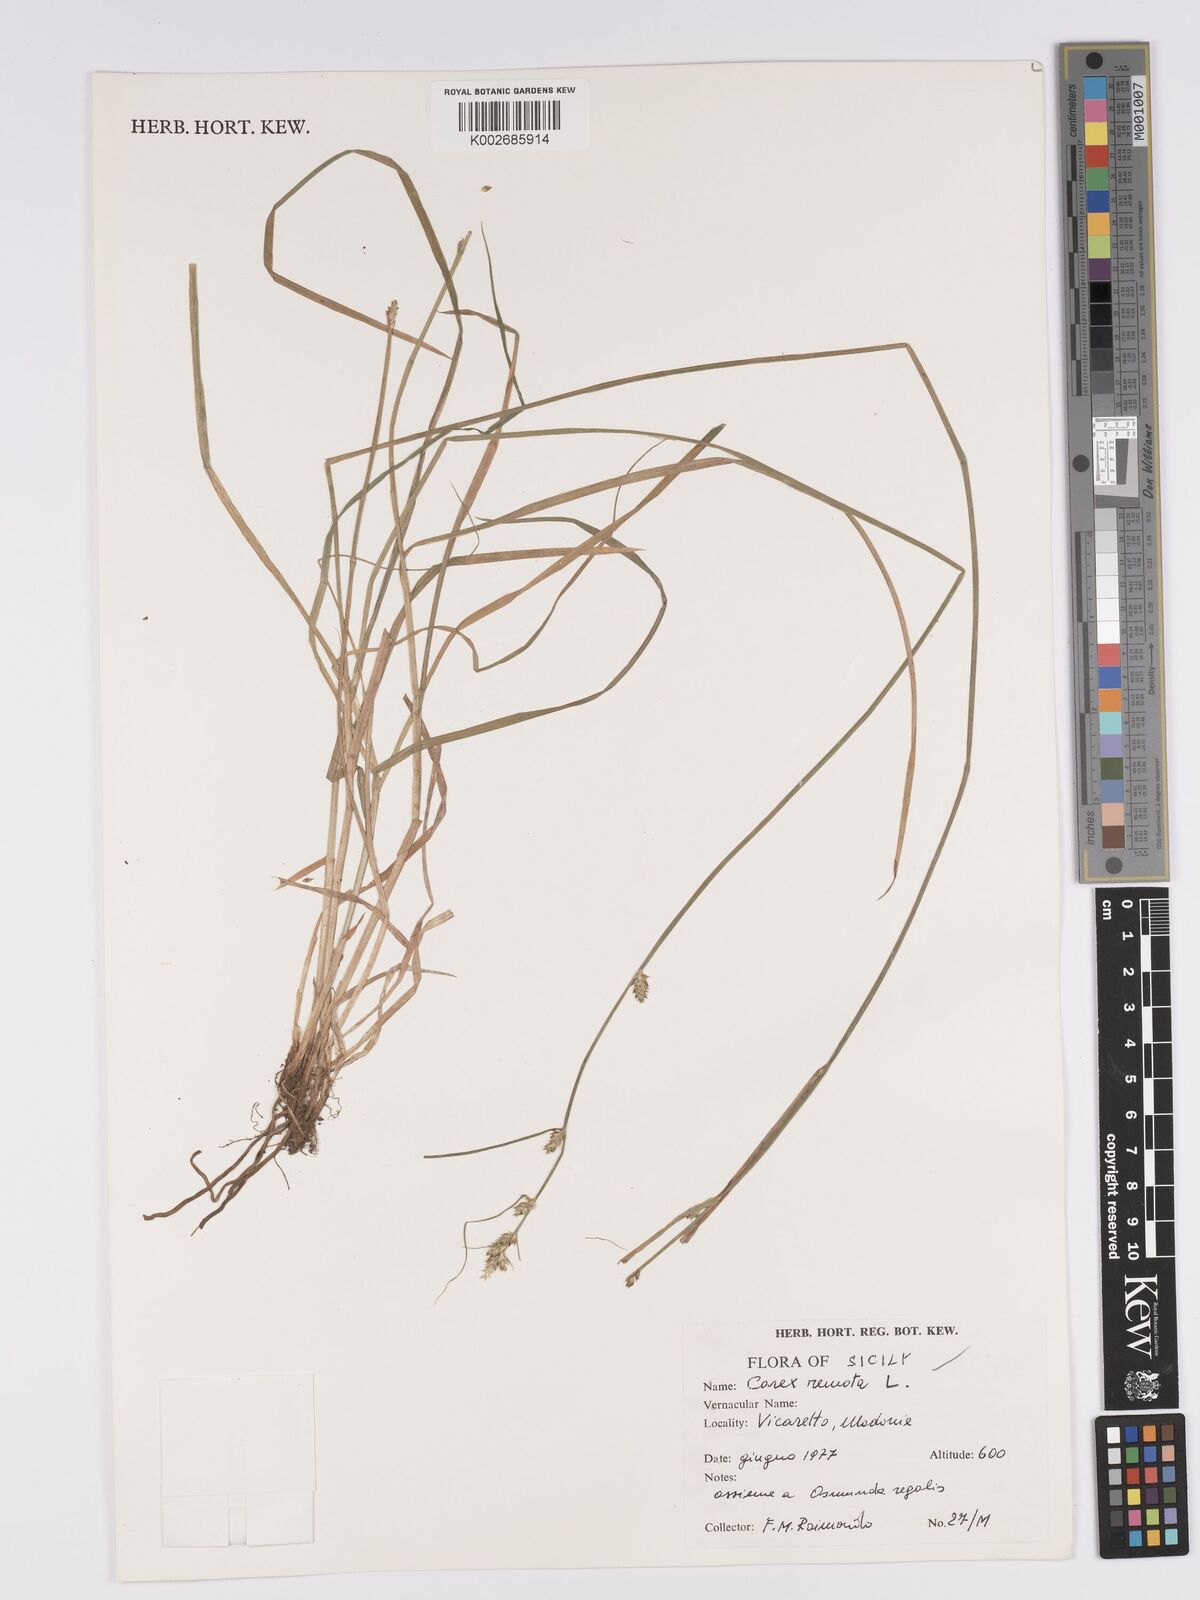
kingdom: Plantae
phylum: Tracheophyta
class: Liliopsida
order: Poales
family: Cyperaceae
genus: Carex
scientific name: Carex remota
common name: Remote sedge
